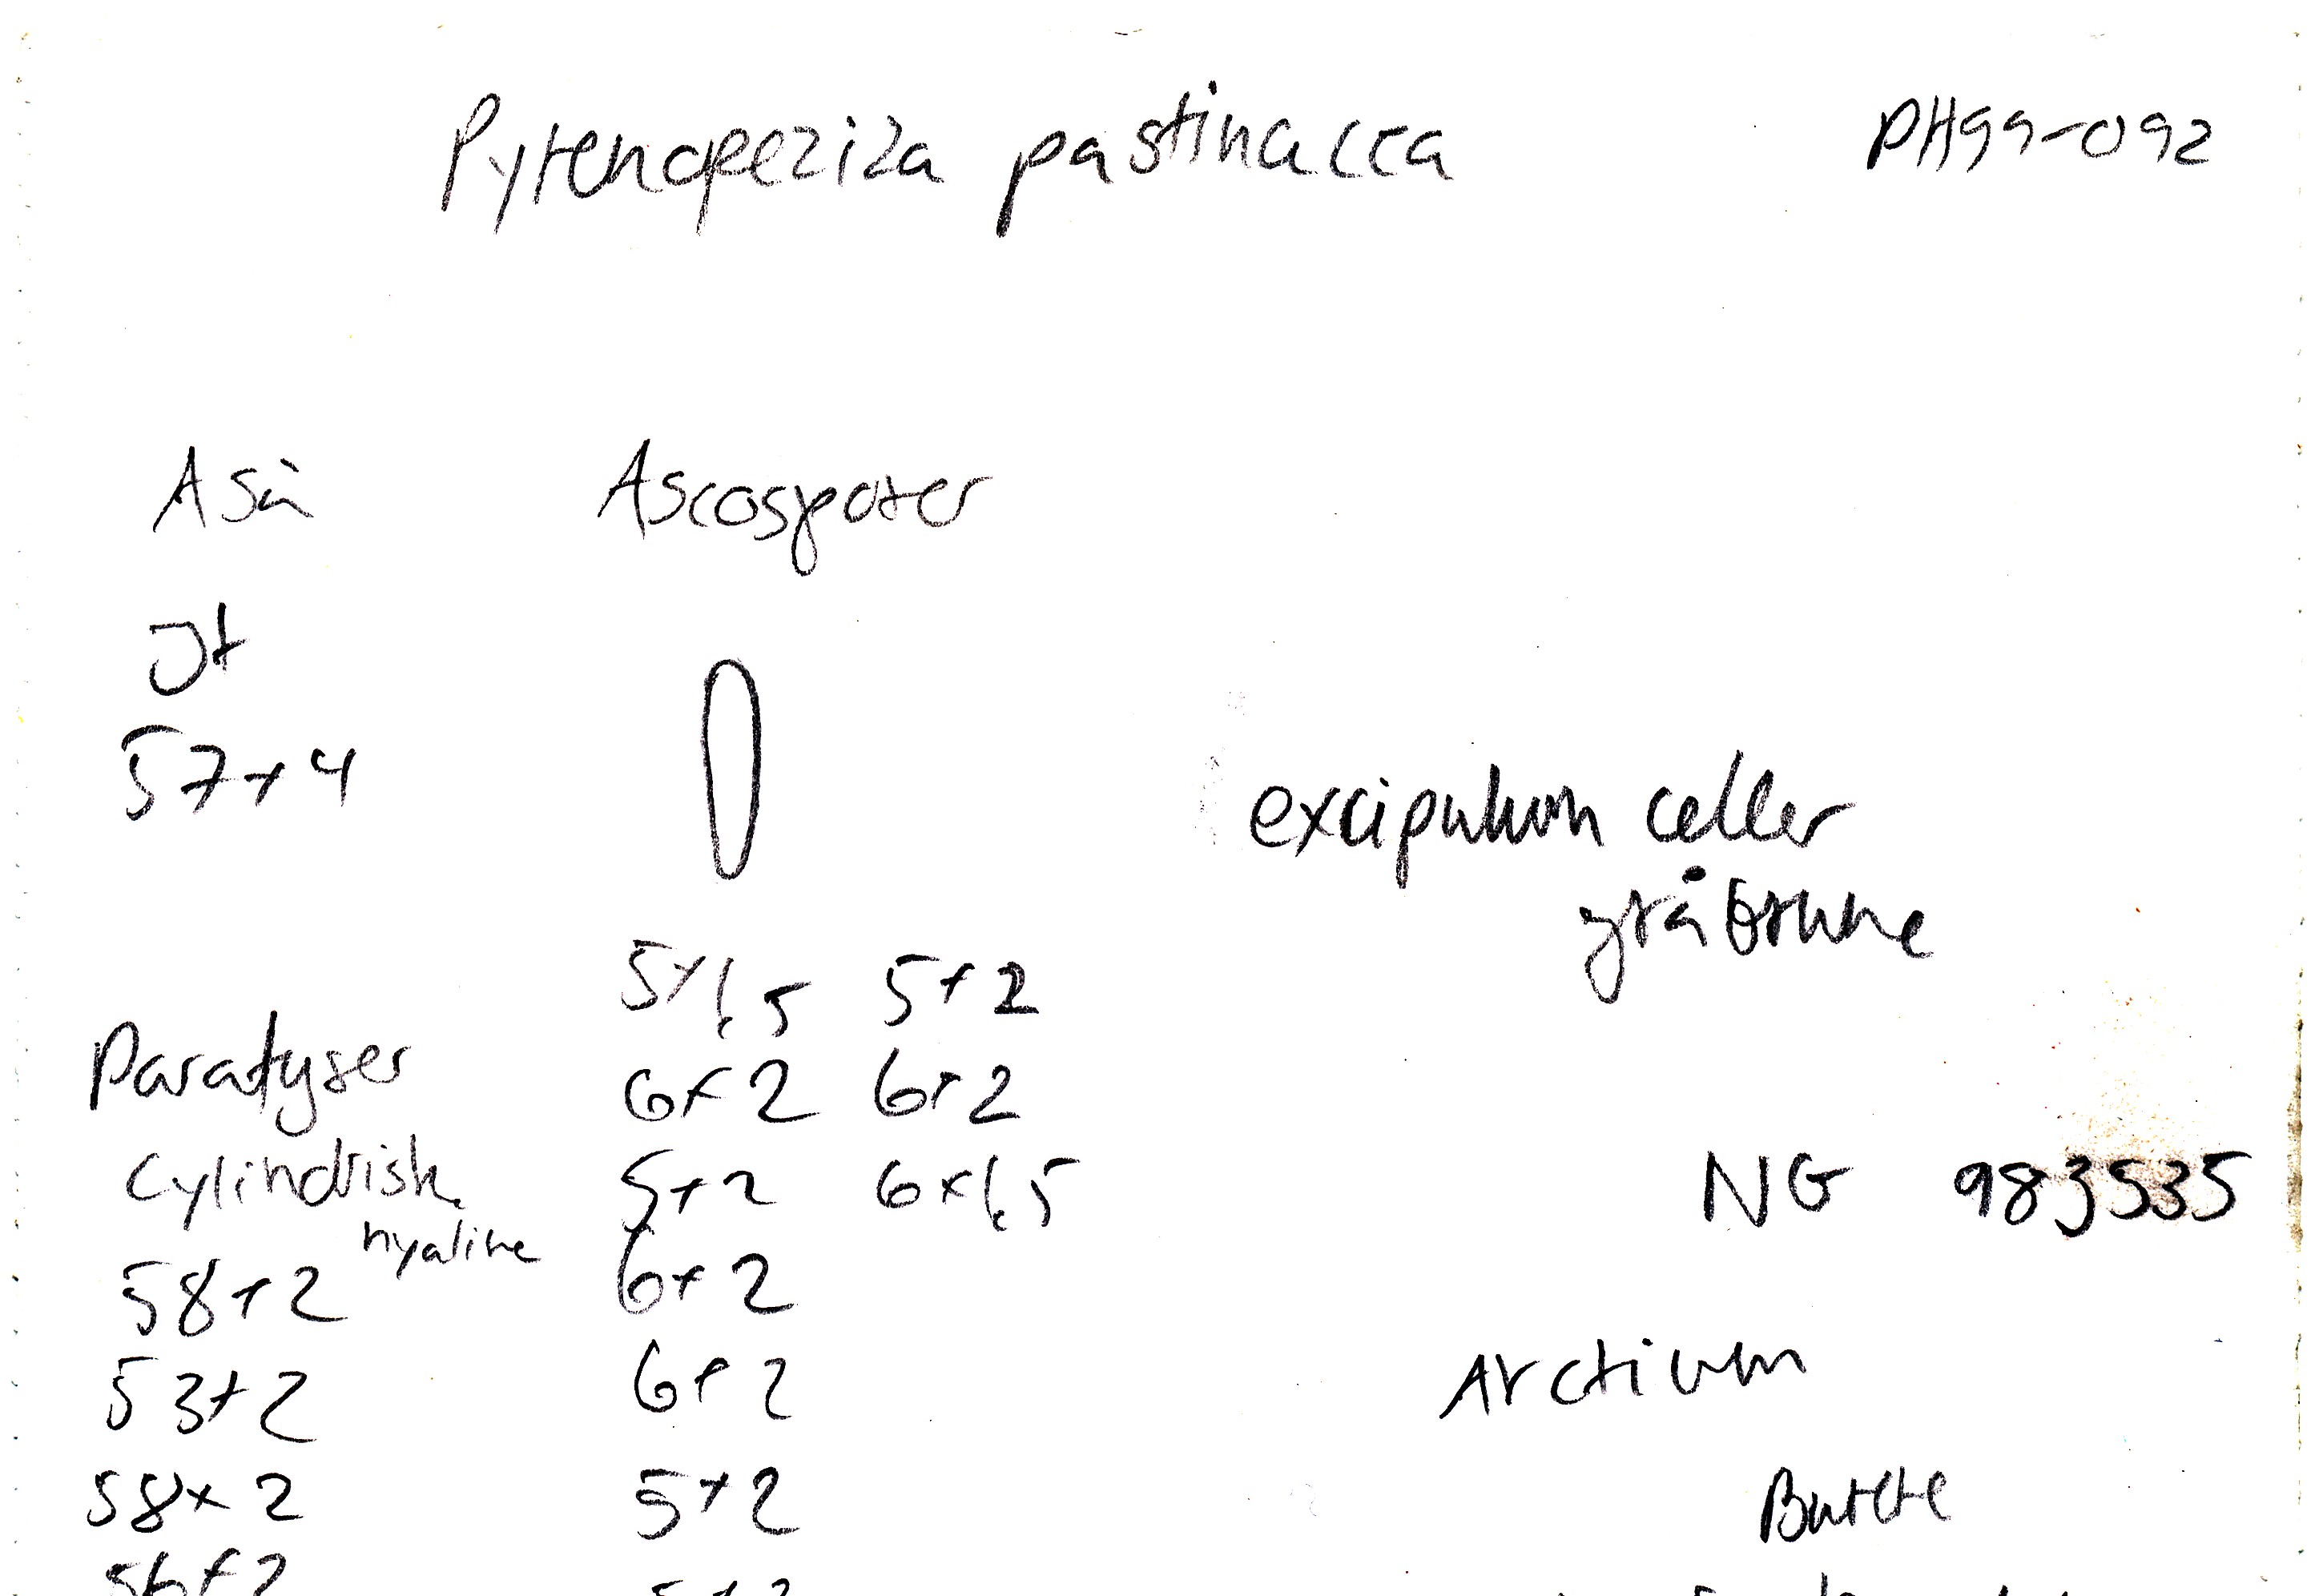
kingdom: Fungi
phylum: Ascomycota
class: Leotiomycetes
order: Helotiales
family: Ploettnerulaceae
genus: Pyrenopeziza
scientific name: Pyrenopeziza pastinacae
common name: stængel-kerneskive
